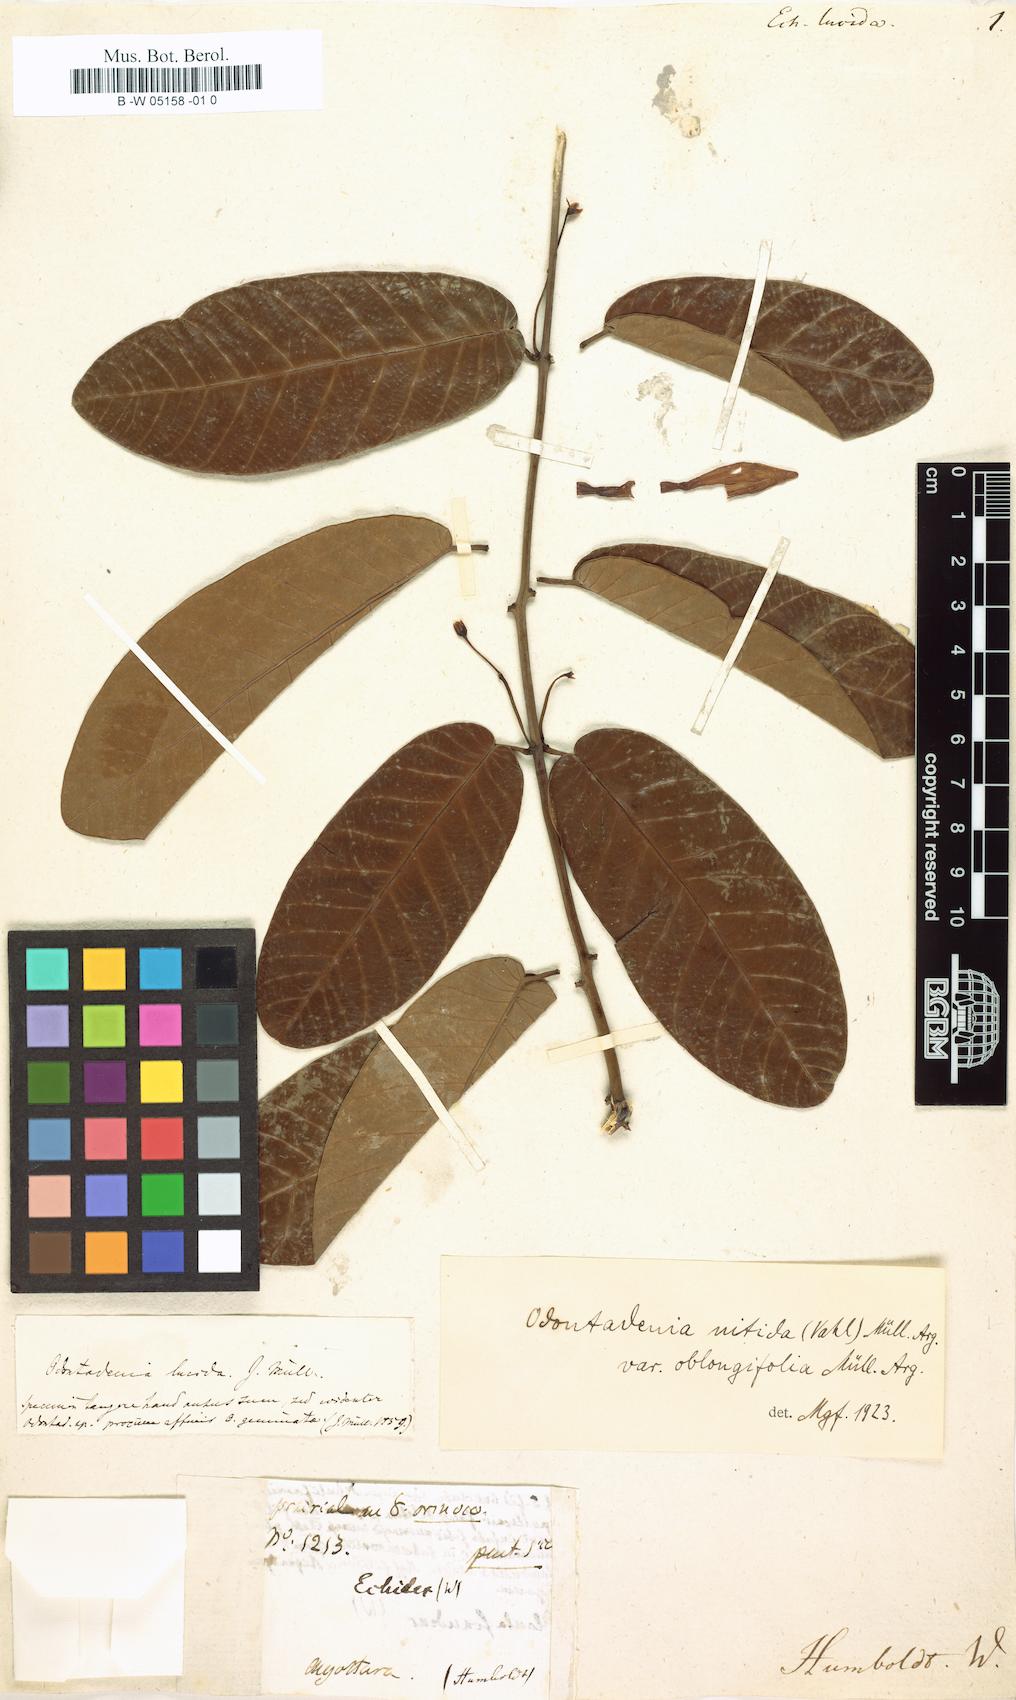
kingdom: Plantae
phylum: Tracheophyta
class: Magnoliopsida
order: Gentianales
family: Apocynaceae
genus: Odontadenia
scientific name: Odontadenia nitida
